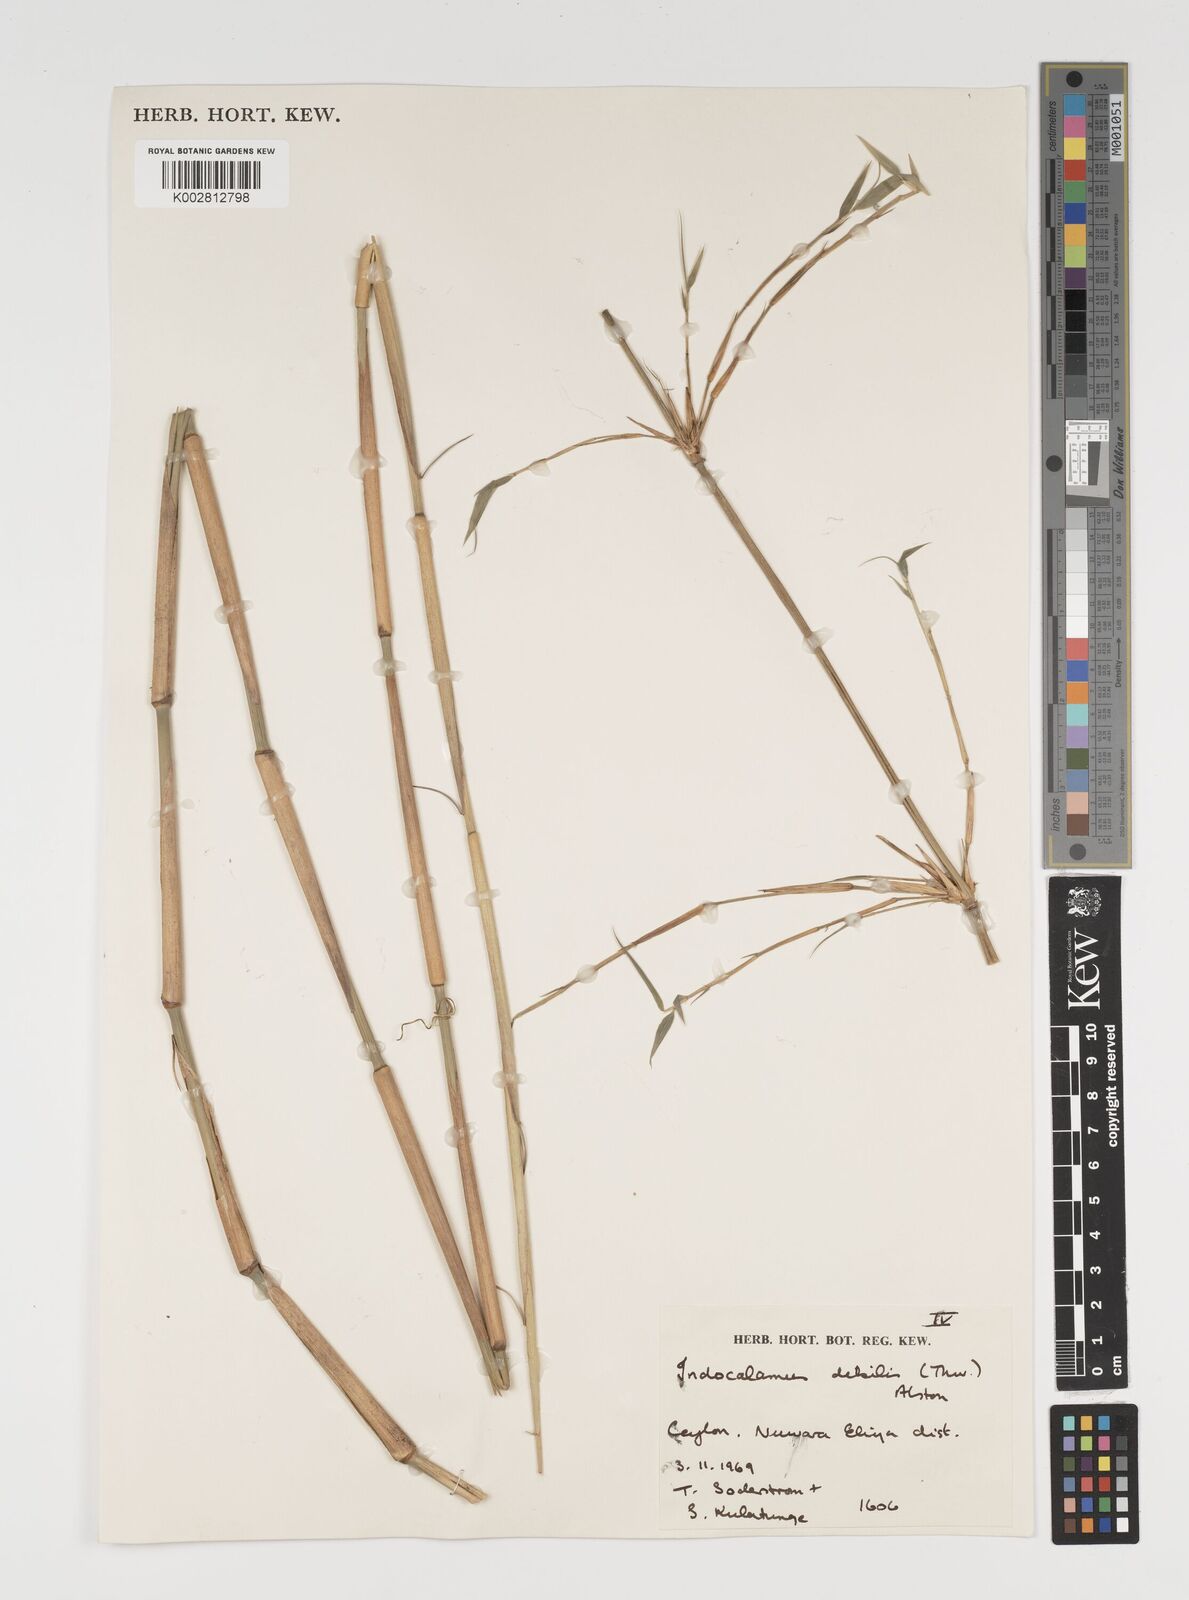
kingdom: Plantae
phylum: Tracheophyta
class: Liliopsida
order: Poales
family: Poaceae
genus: Kuruna
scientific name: Kuruna debilis
